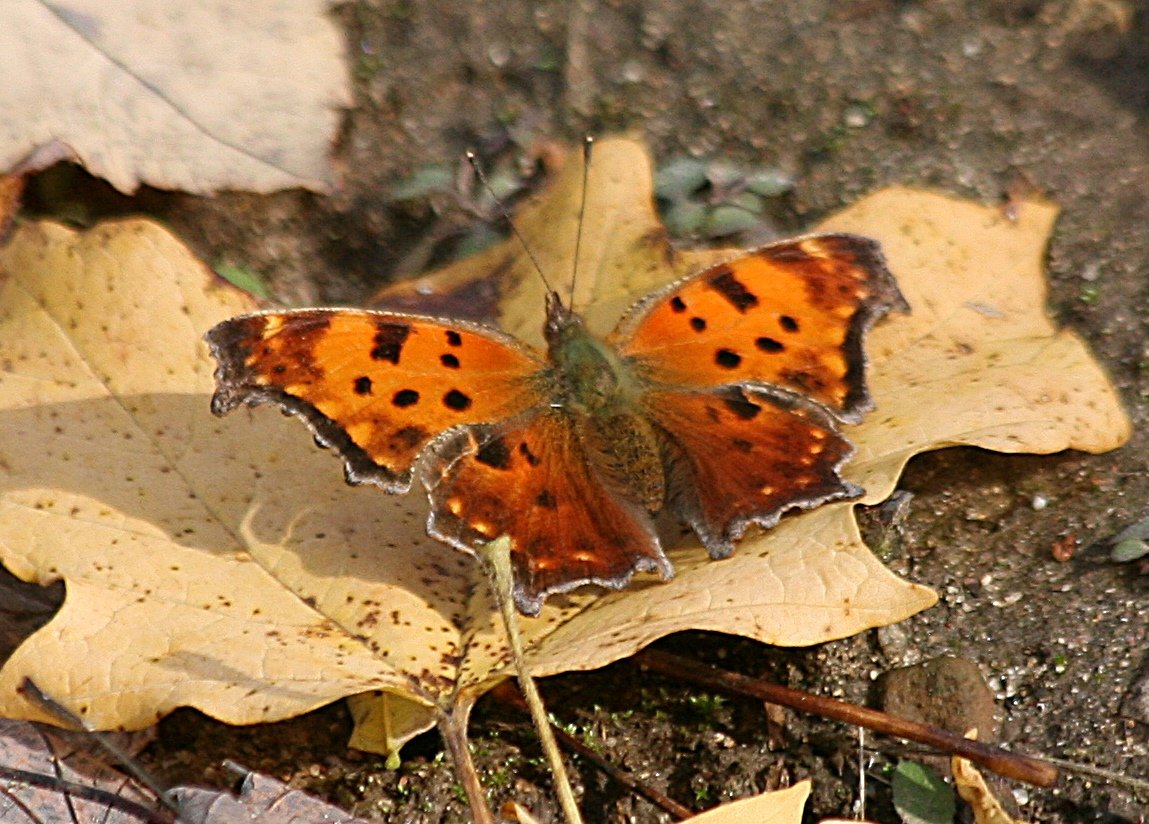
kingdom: Animalia
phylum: Arthropoda
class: Insecta
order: Lepidoptera
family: Nymphalidae
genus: Polygonia
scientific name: Polygonia comma
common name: Eastern Comma
